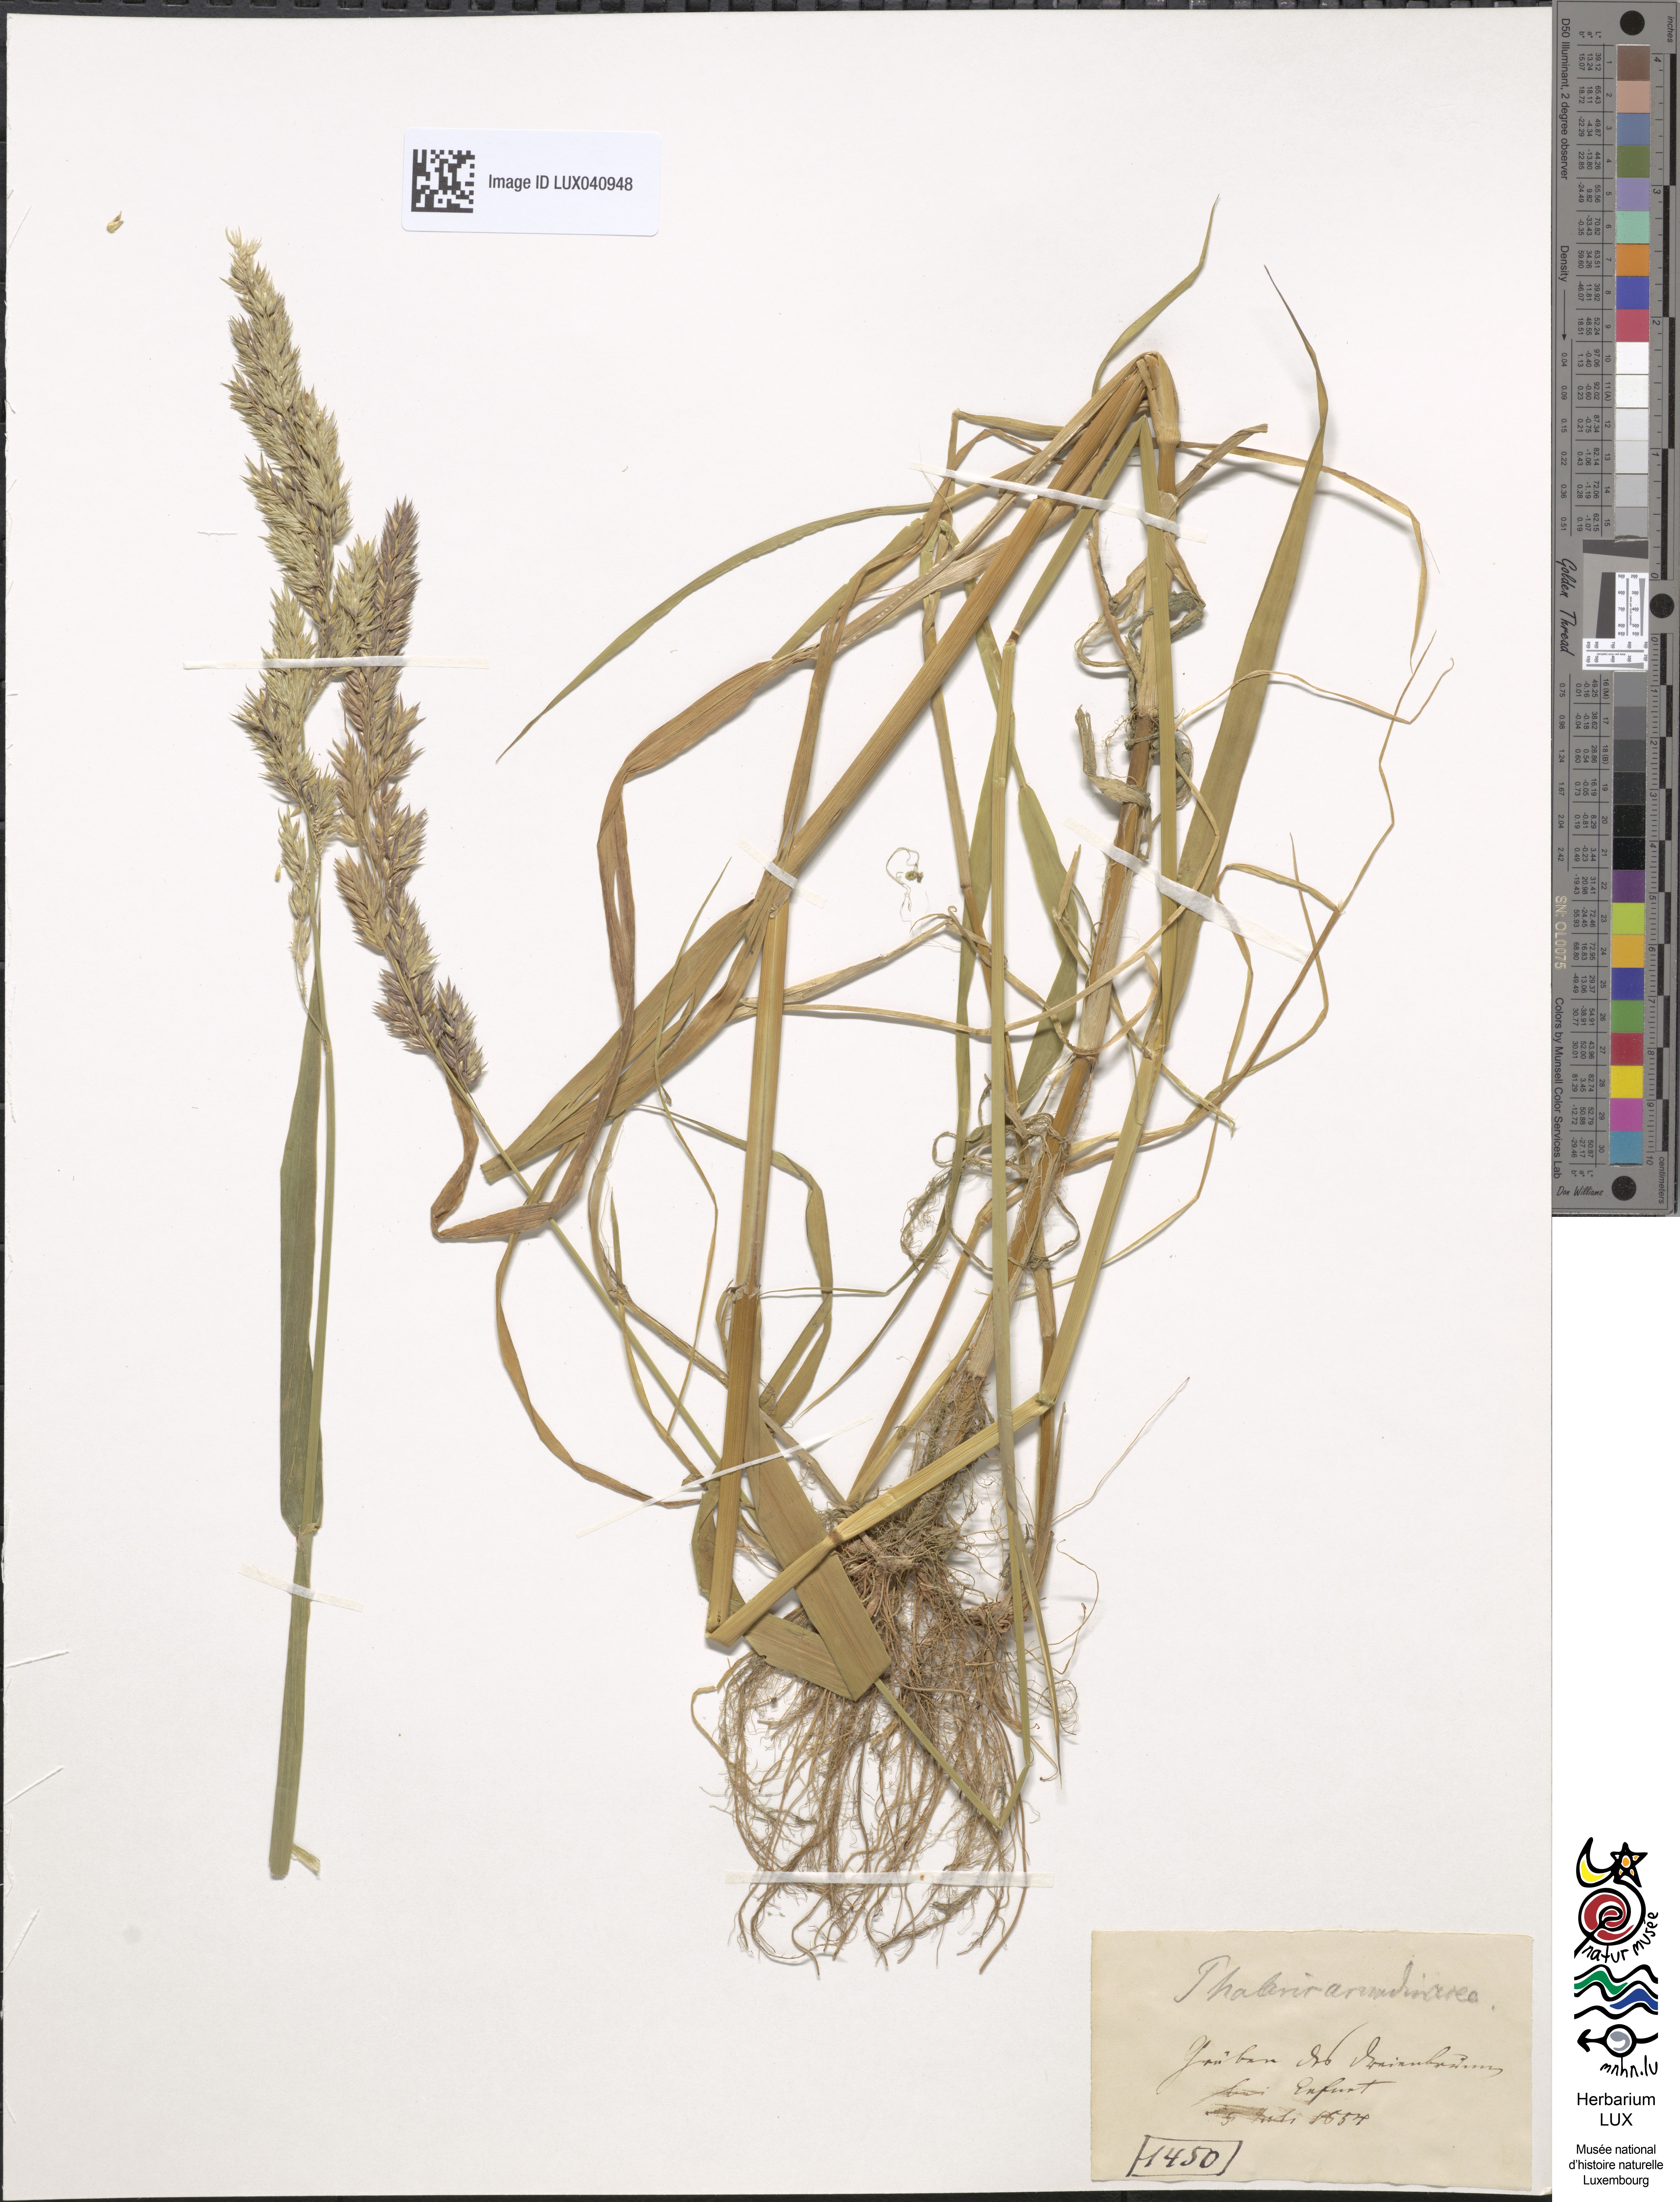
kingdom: Plantae
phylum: Tracheophyta
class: Liliopsida
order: Poales
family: Poaceae
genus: Phalaris
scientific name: Phalaris arundinacea
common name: Reed canary-grass
